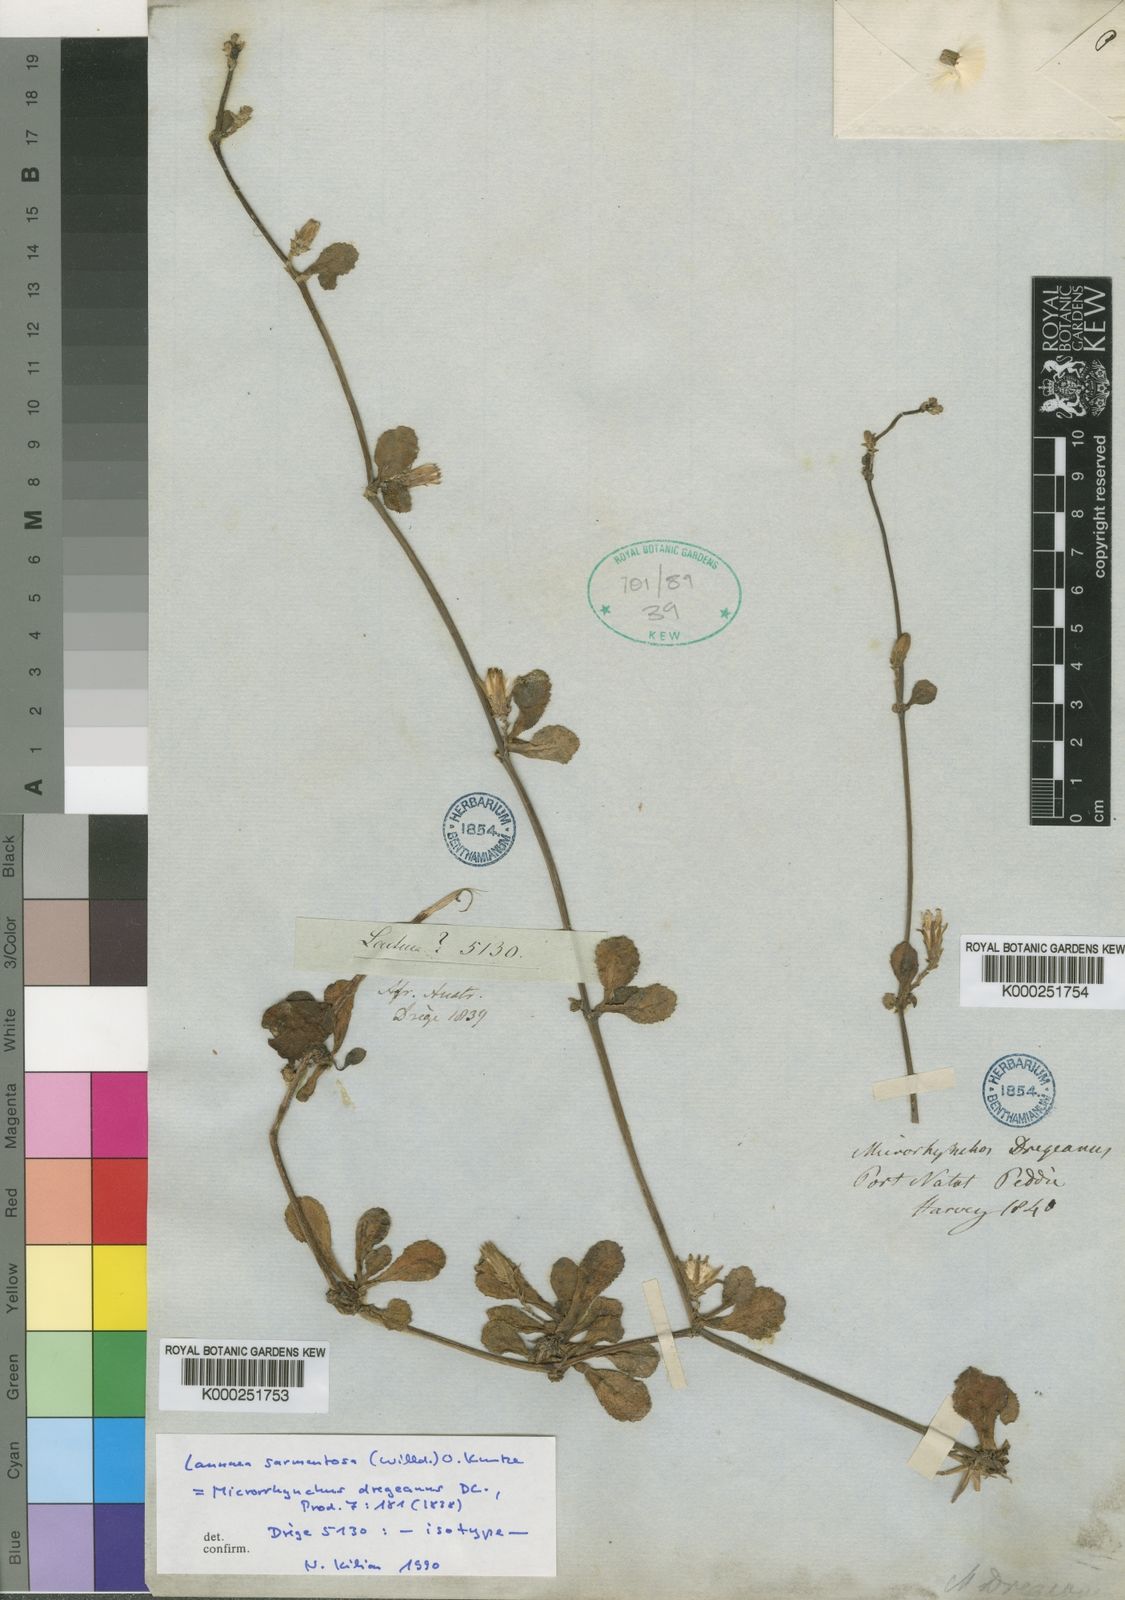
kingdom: Plantae
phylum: Tracheophyta
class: Magnoliopsida
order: Asterales
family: Asteraceae
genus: Launaea
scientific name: Launaea sarmentosa
